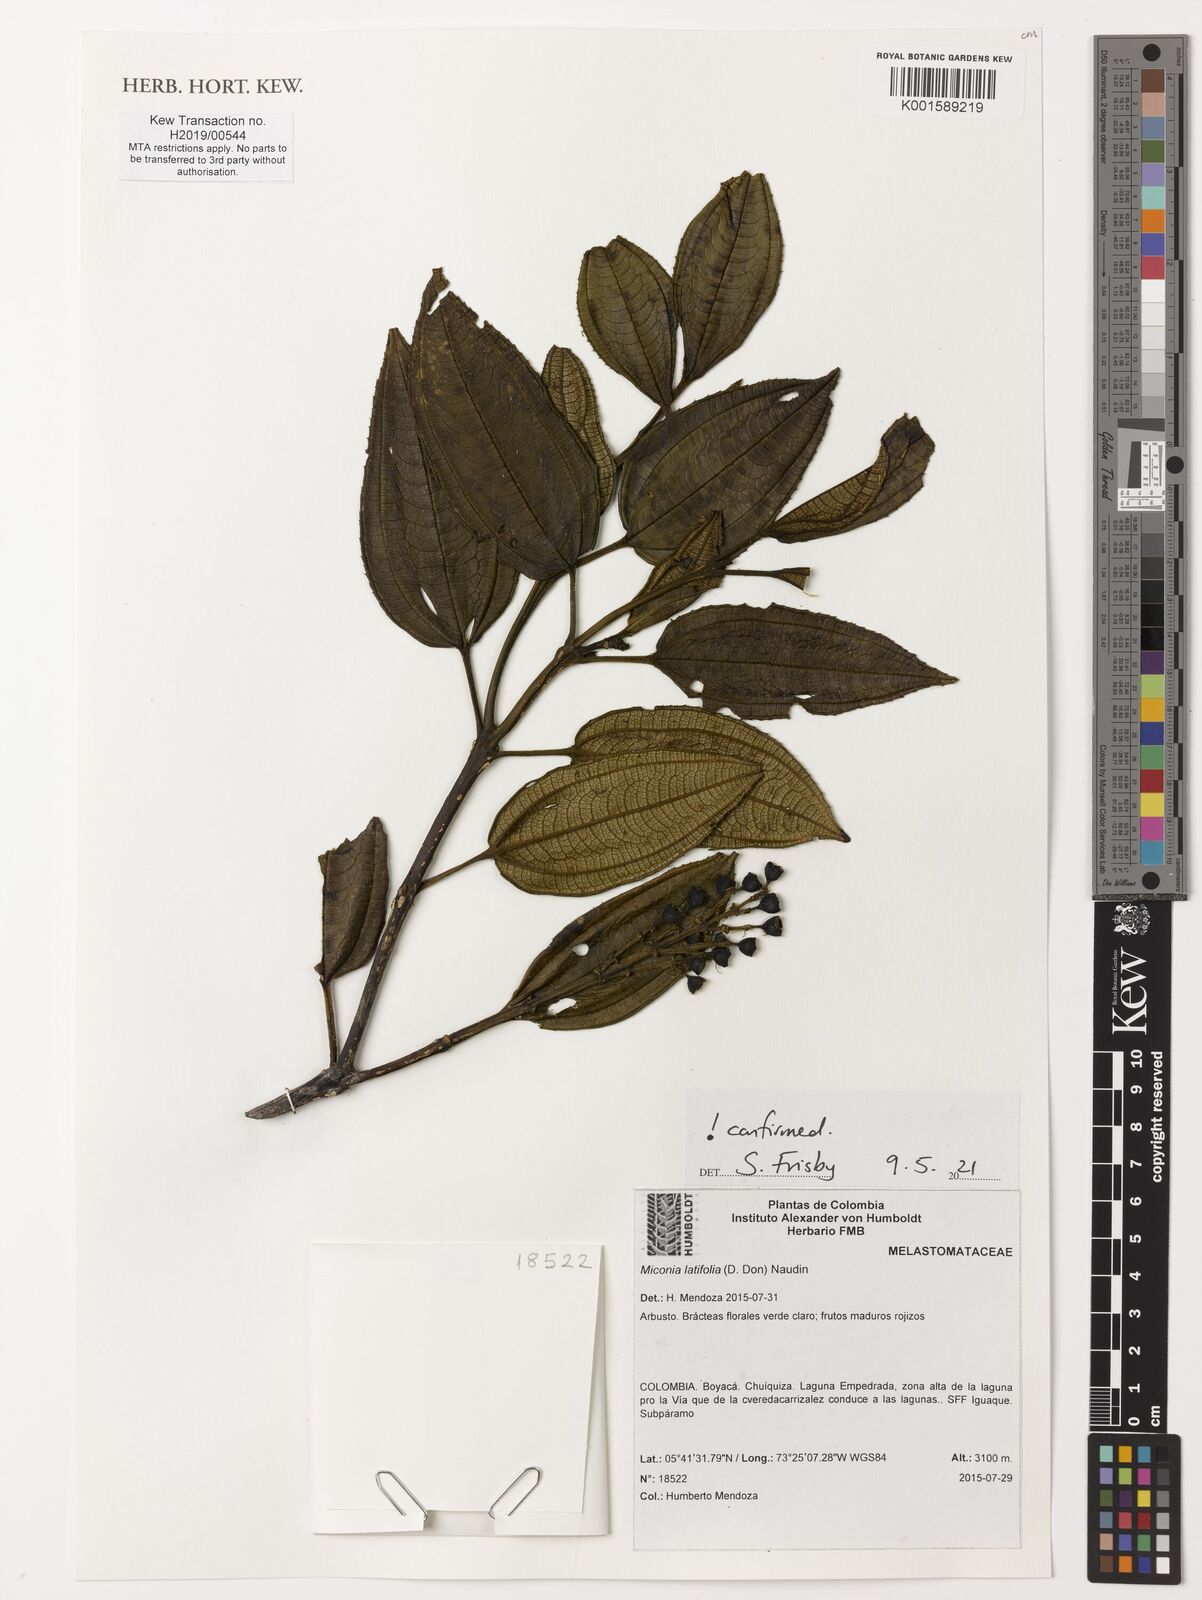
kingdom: Plantae
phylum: Tracheophyta
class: Magnoliopsida
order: Myrtales
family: Melastomataceae
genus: Miconia
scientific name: Miconia latifolia
